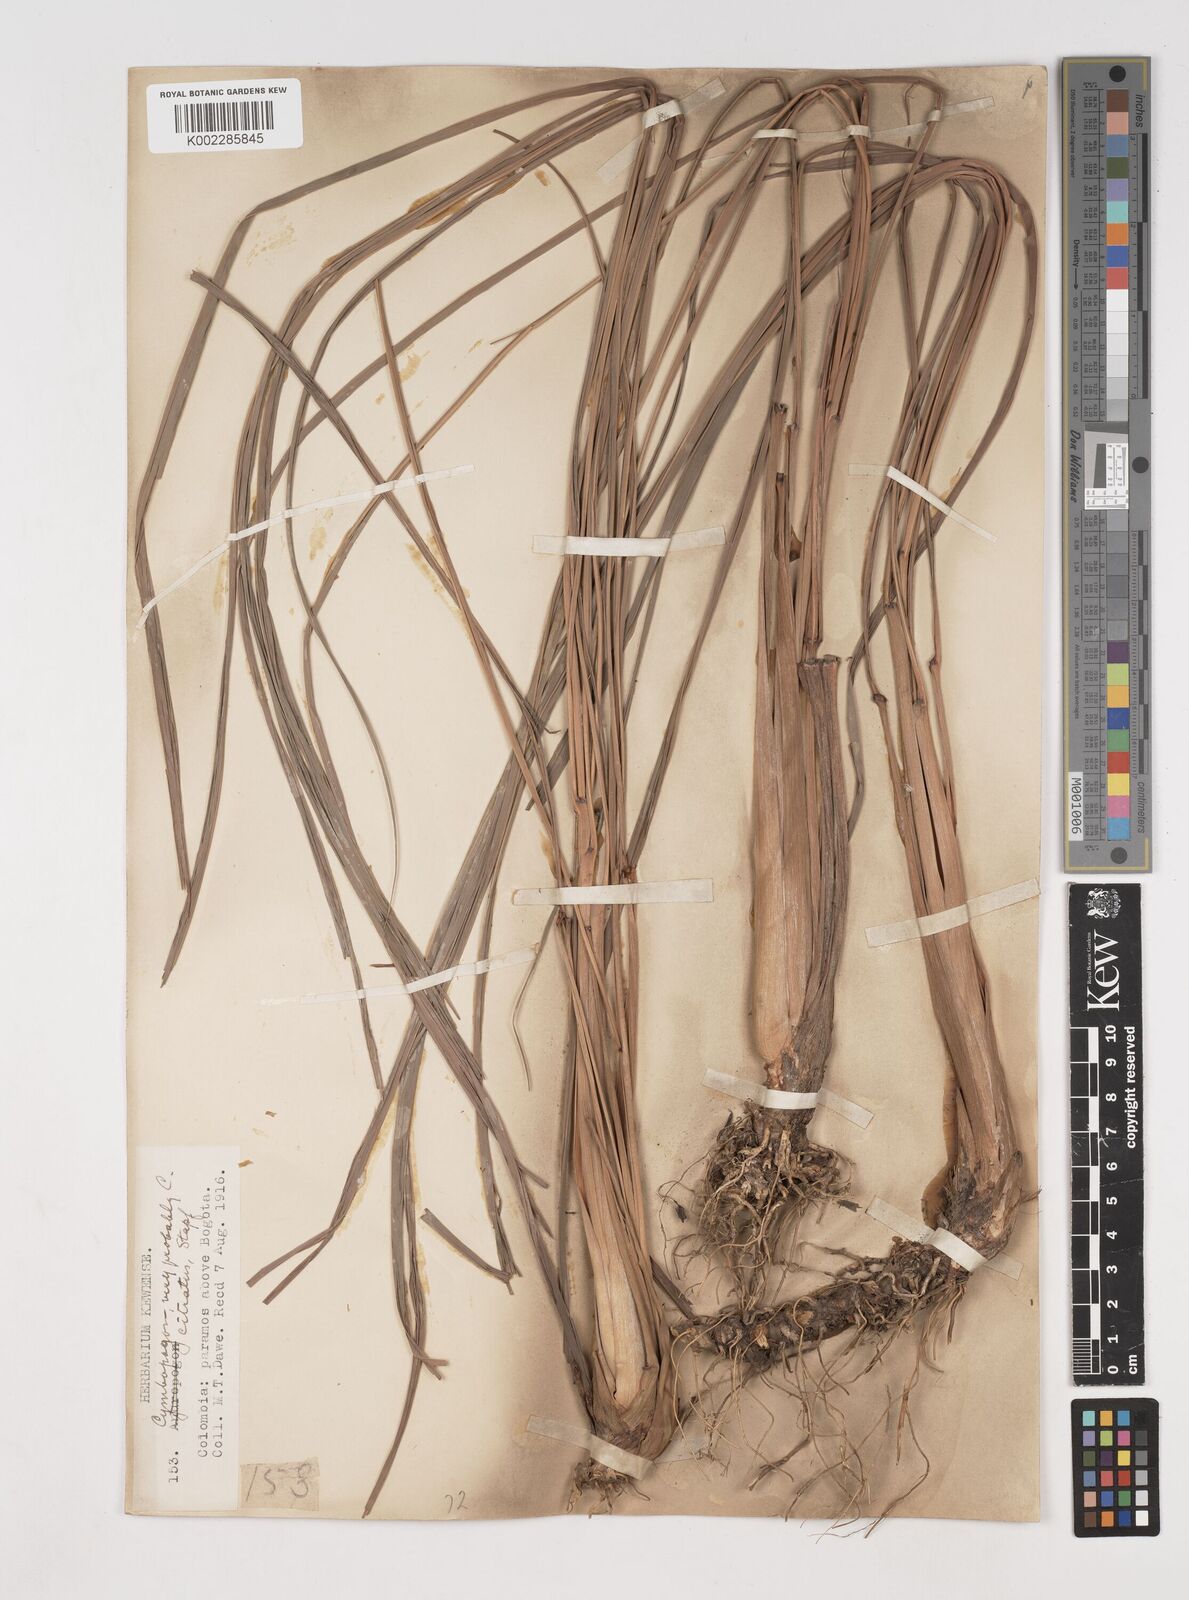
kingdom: Plantae
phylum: Tracheophyta
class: Liliopsida
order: Poales
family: Poaceae
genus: Cymbopogon
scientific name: Cymbopogon citratus
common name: Lemon grass
